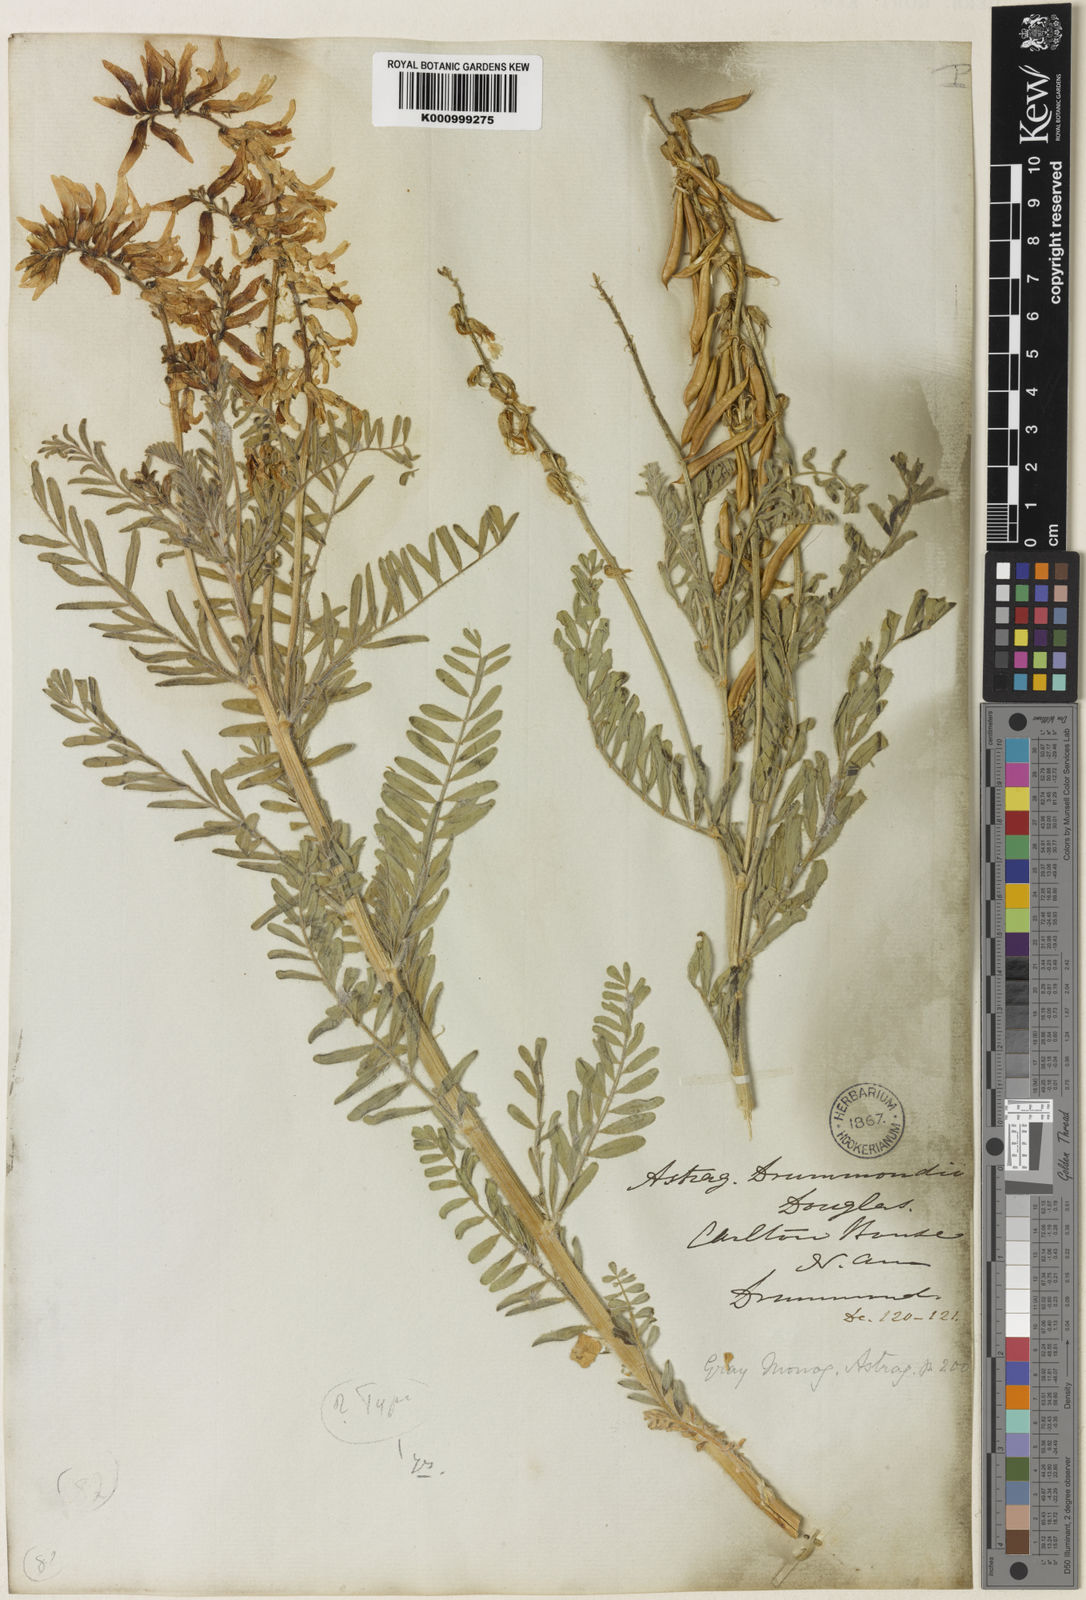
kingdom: Plantae
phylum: Tracheophyta
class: Magnoliopsida
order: Fabales
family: Fabaceae
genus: Astragalus
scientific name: Astragalus
